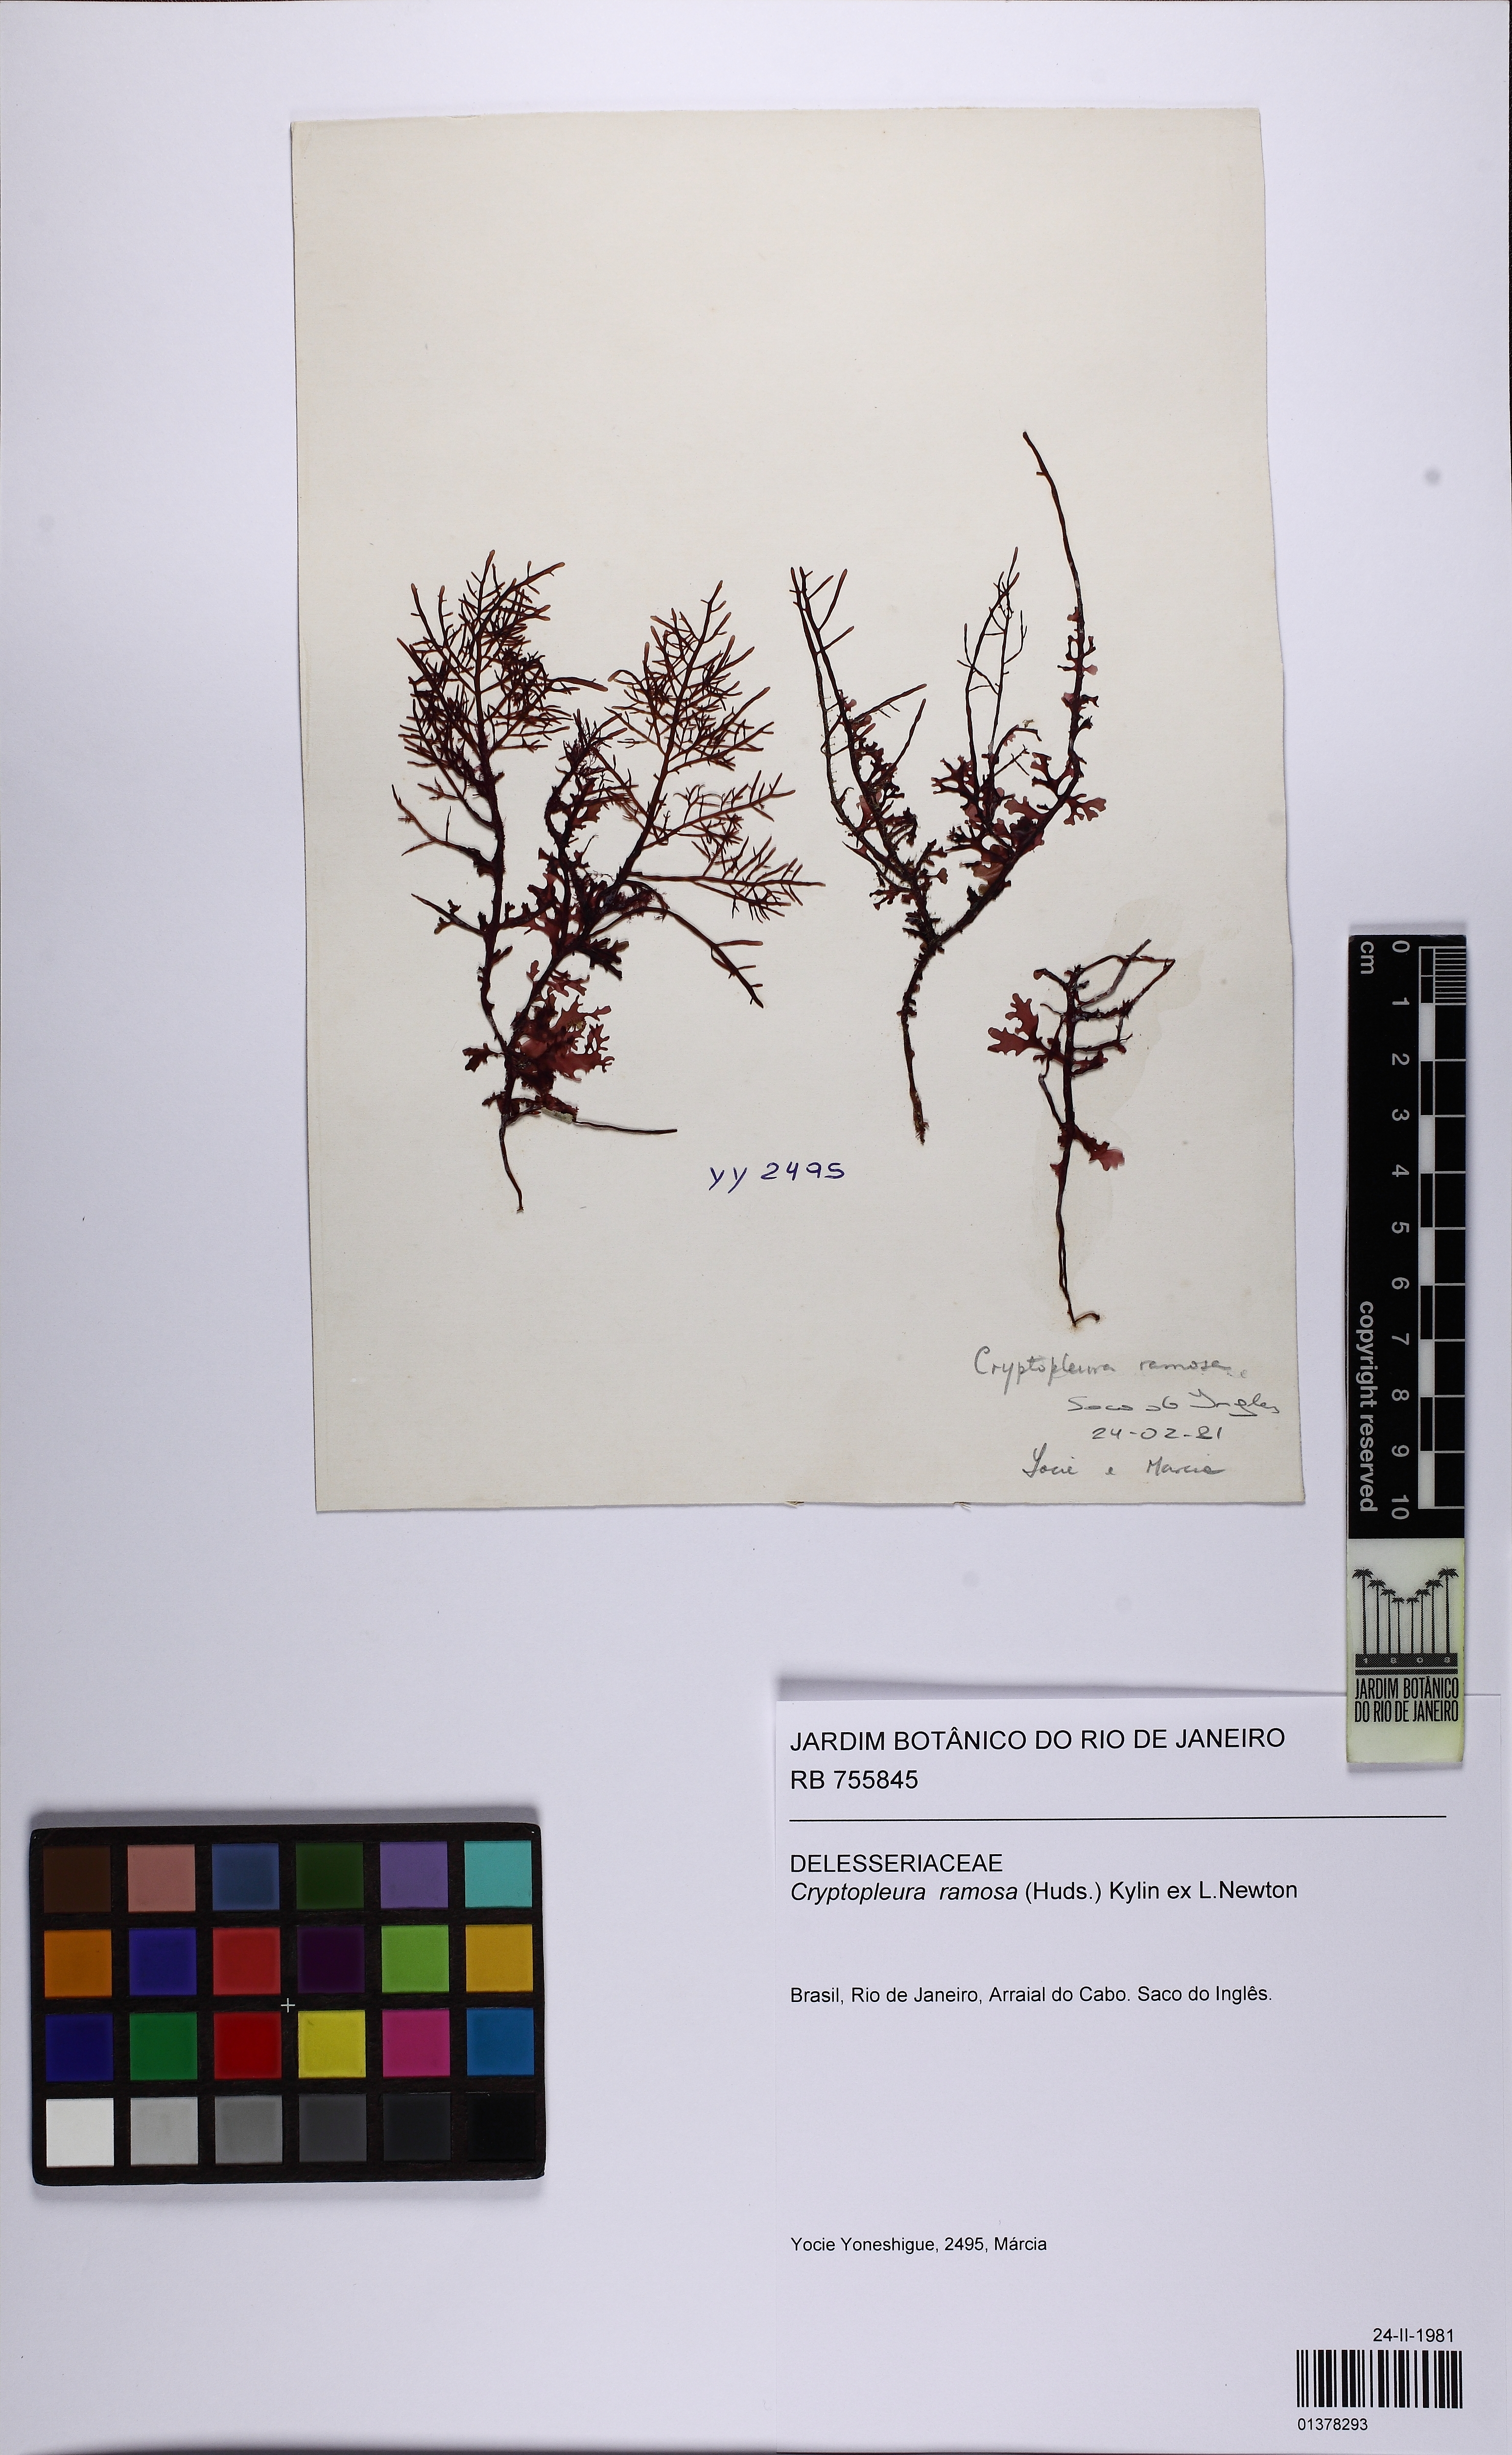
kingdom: Plantae
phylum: Rhodophyta
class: Florideophyceae
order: Ceramiales
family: Delesseriaceae
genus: Cryptopleura
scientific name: Cryptopleura ramosa
